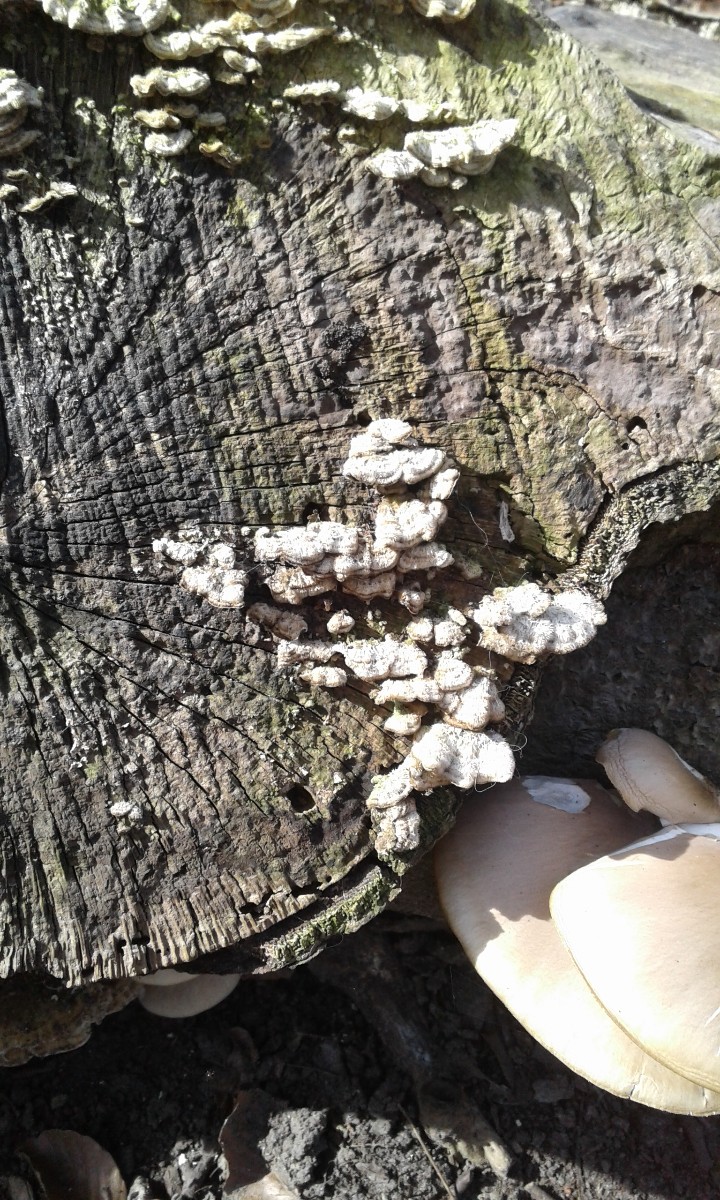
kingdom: Fungi
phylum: Basidiomycota
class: Agaricomycetes
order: Agaricales
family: Cyphellaceae
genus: Chondrostereum
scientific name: Chondrostereum purpureum
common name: purpurlædersvamp
